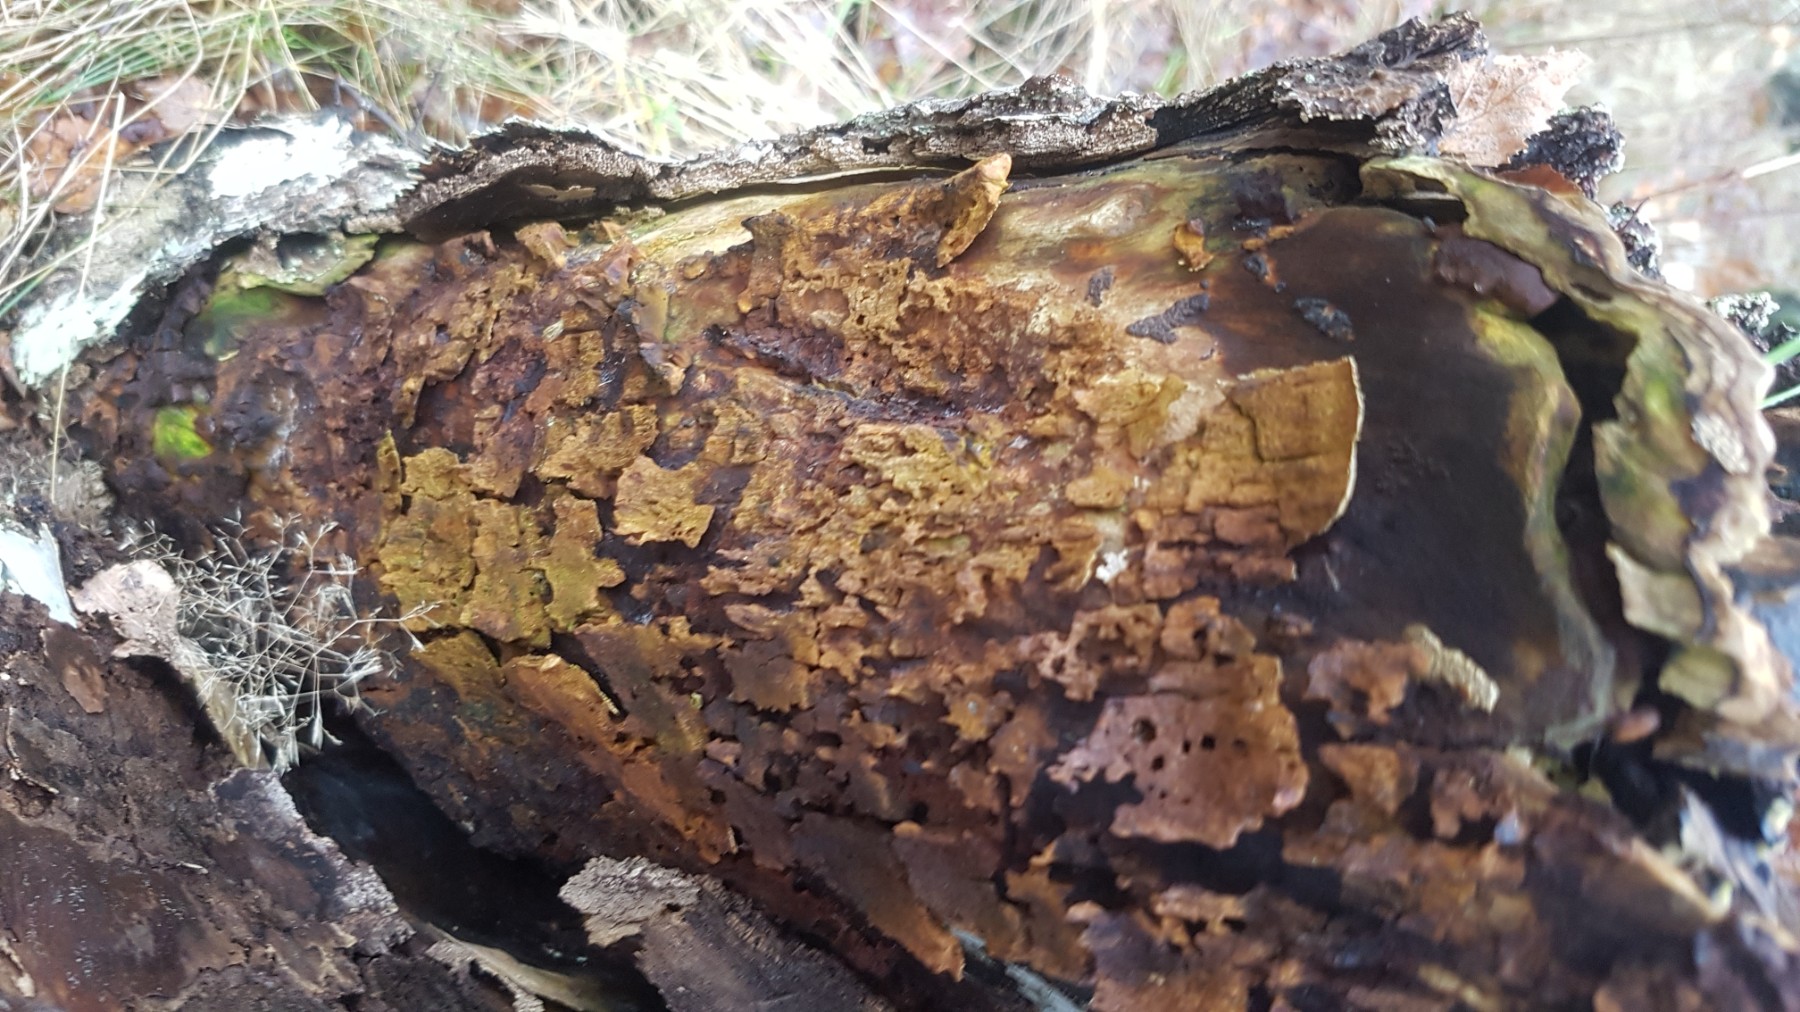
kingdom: Fungi
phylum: Basidiomycota
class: Agaricomycetes
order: Hymenochaetales
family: Hymenochaetaceae
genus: Inonotus
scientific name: Inonotus obliquus
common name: birke-spejlporesvamp
